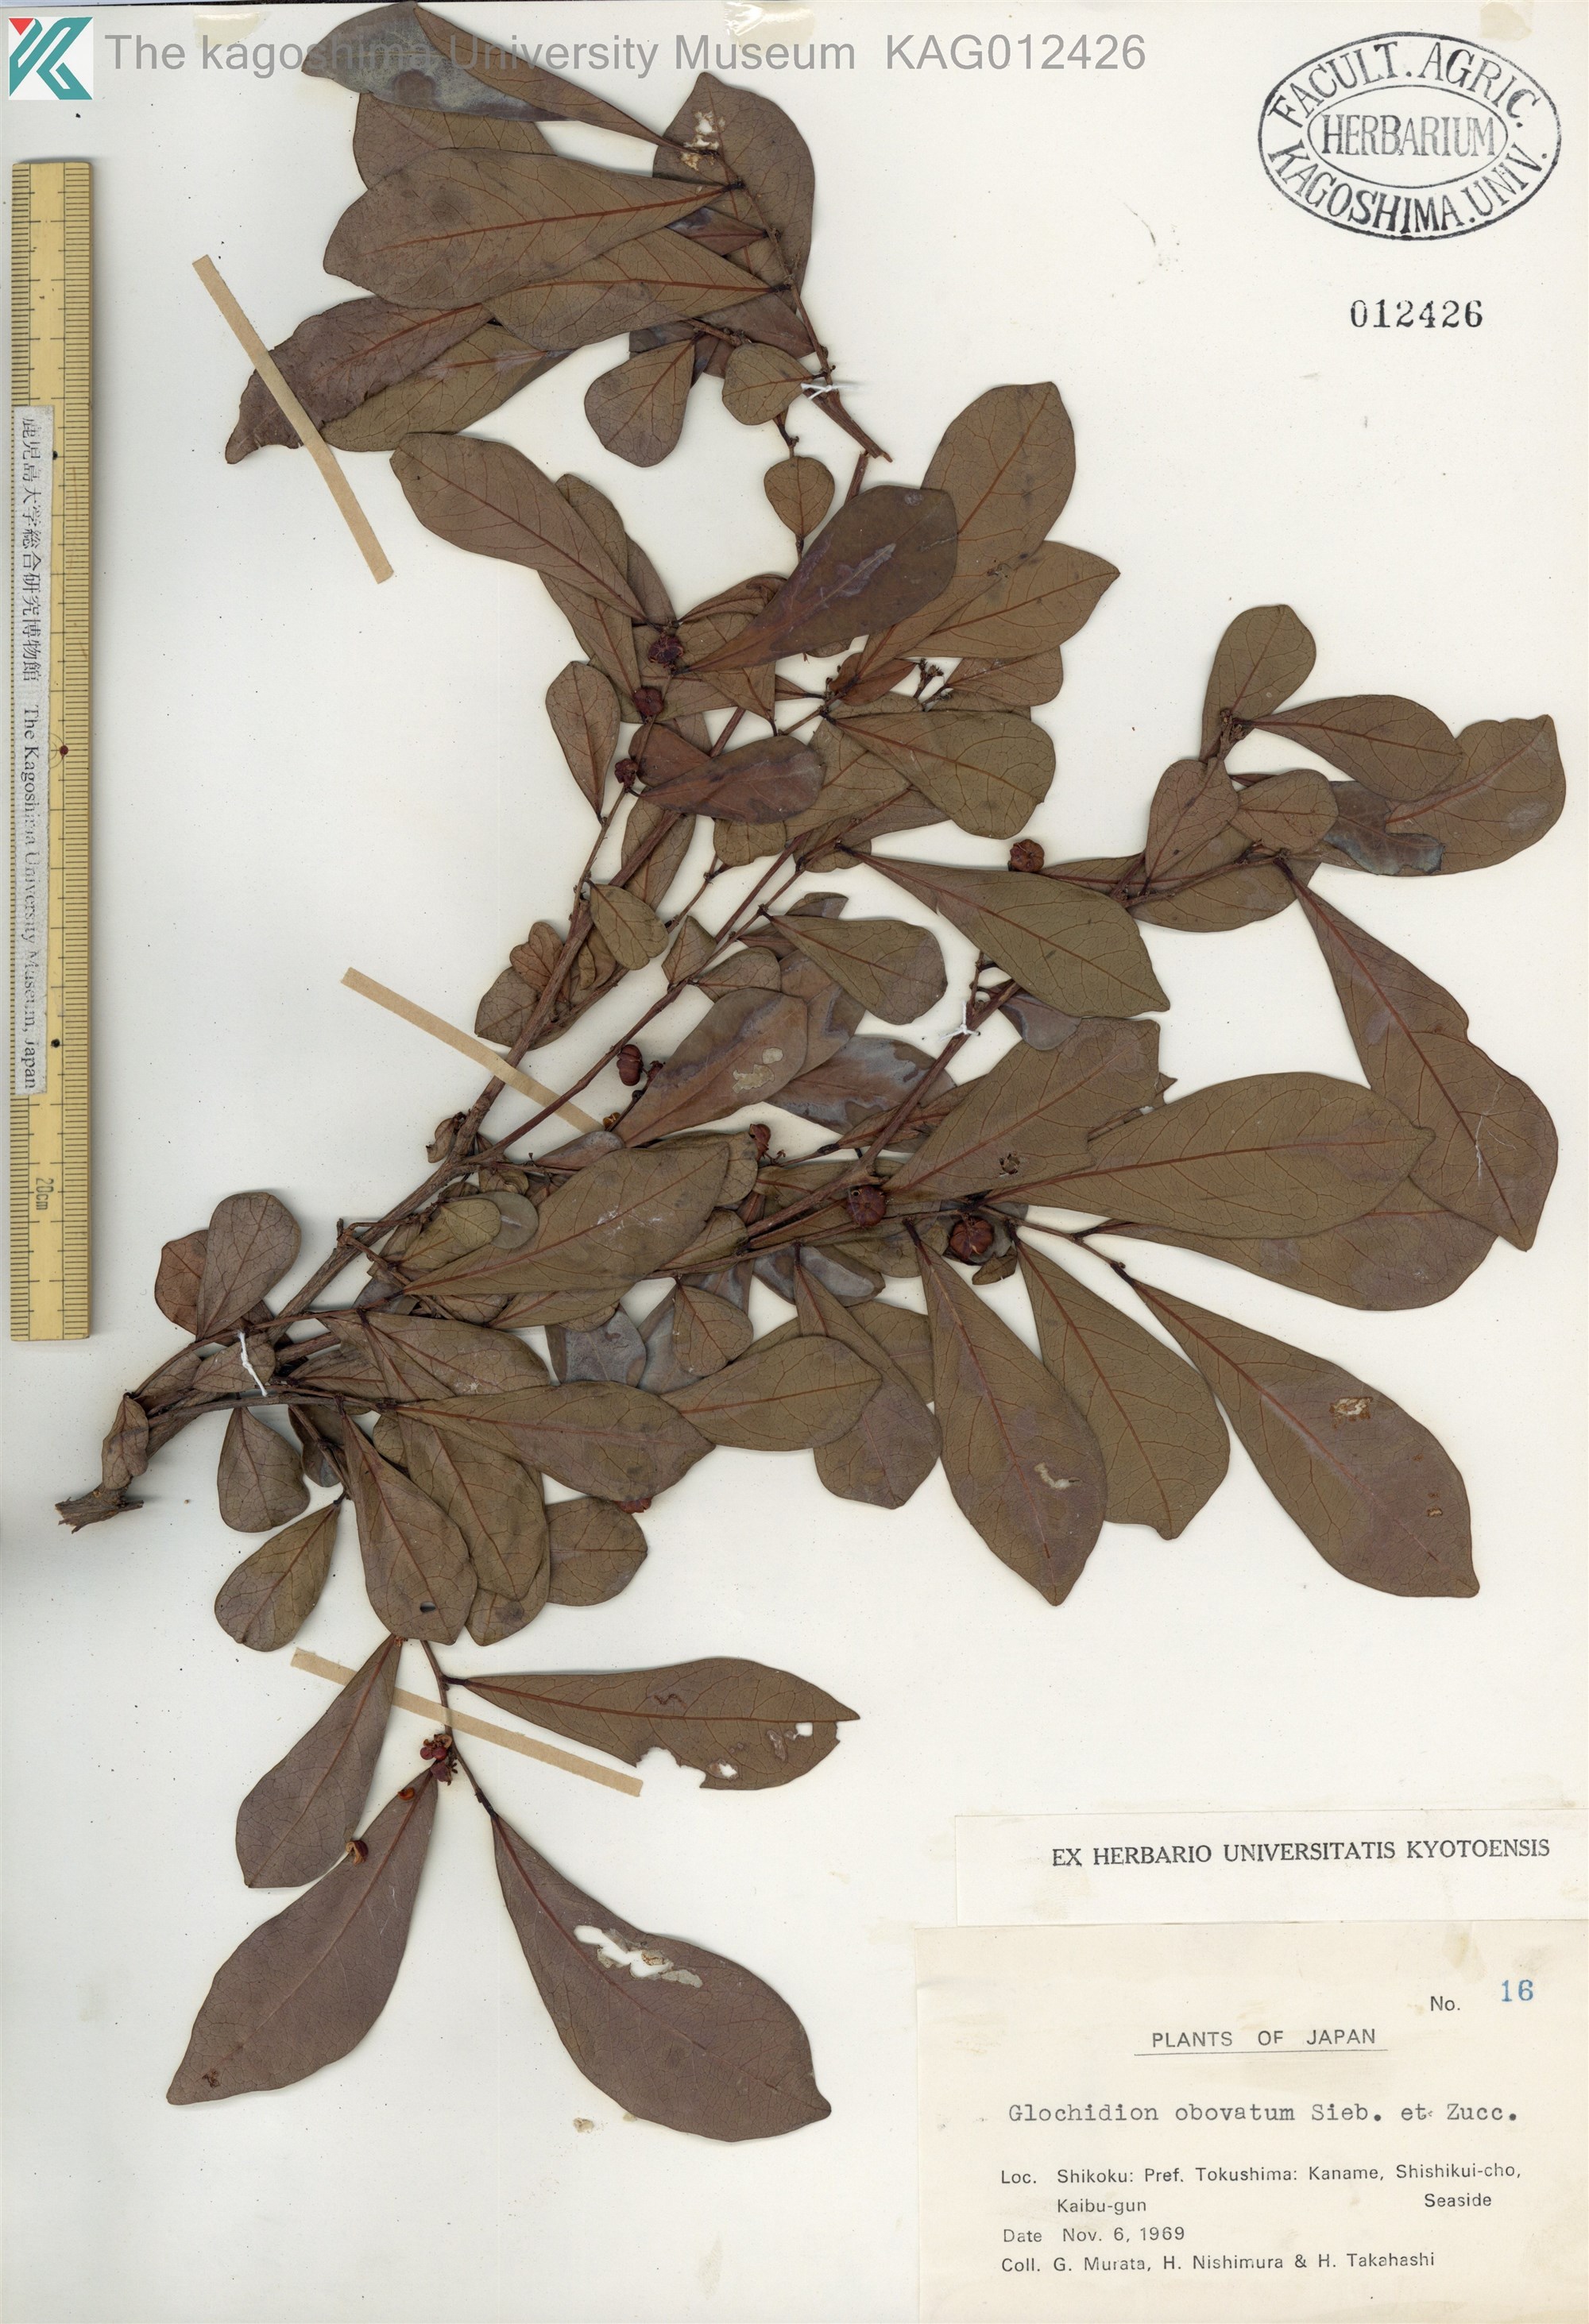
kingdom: Plantae
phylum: Tracheophyta
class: Magnoliopsida
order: Malpighiales
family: Phyllanthaceae
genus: Glochidion
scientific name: Glochidion obovatum
